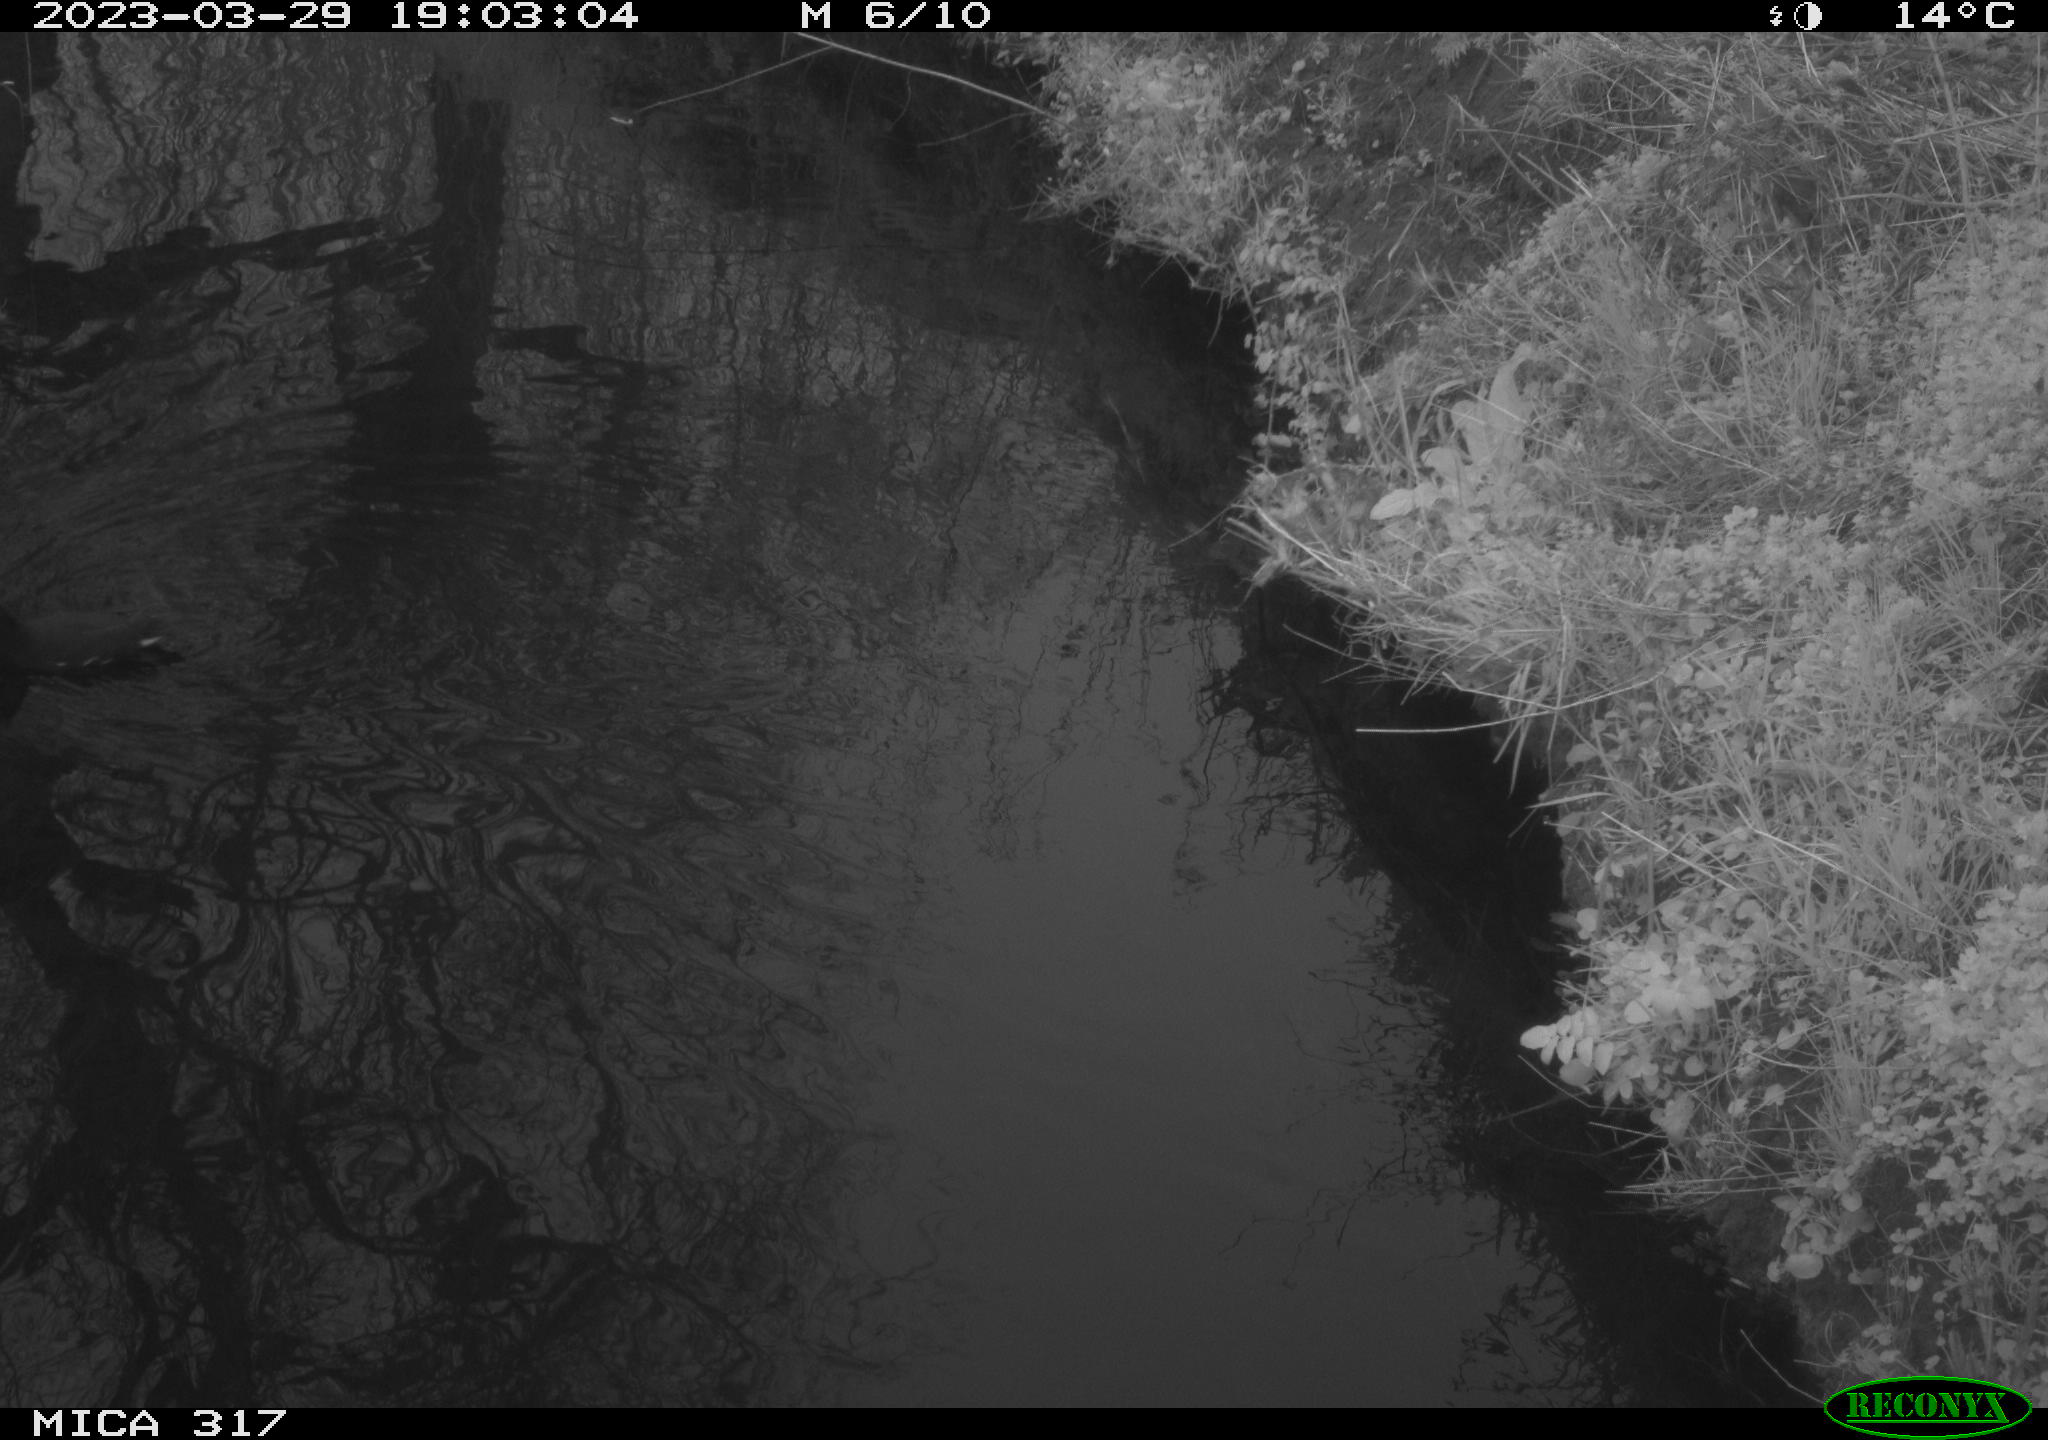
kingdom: Animalia
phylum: Chordata
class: Aves
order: Gruiformes
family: Rallidae
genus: Gallinula
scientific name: Gallinula chloropus
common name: Common moorhen
